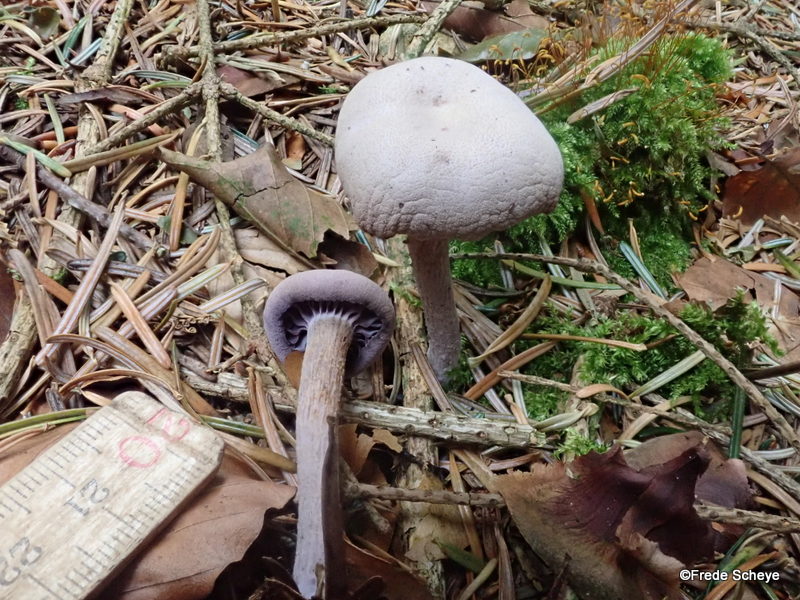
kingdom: Fungi
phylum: Basidiomycota
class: Agaricomycetes
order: Agaricales
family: Hydnangiaceae
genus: Laccaria
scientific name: Laccaria amethystina
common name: violet ametysthat
